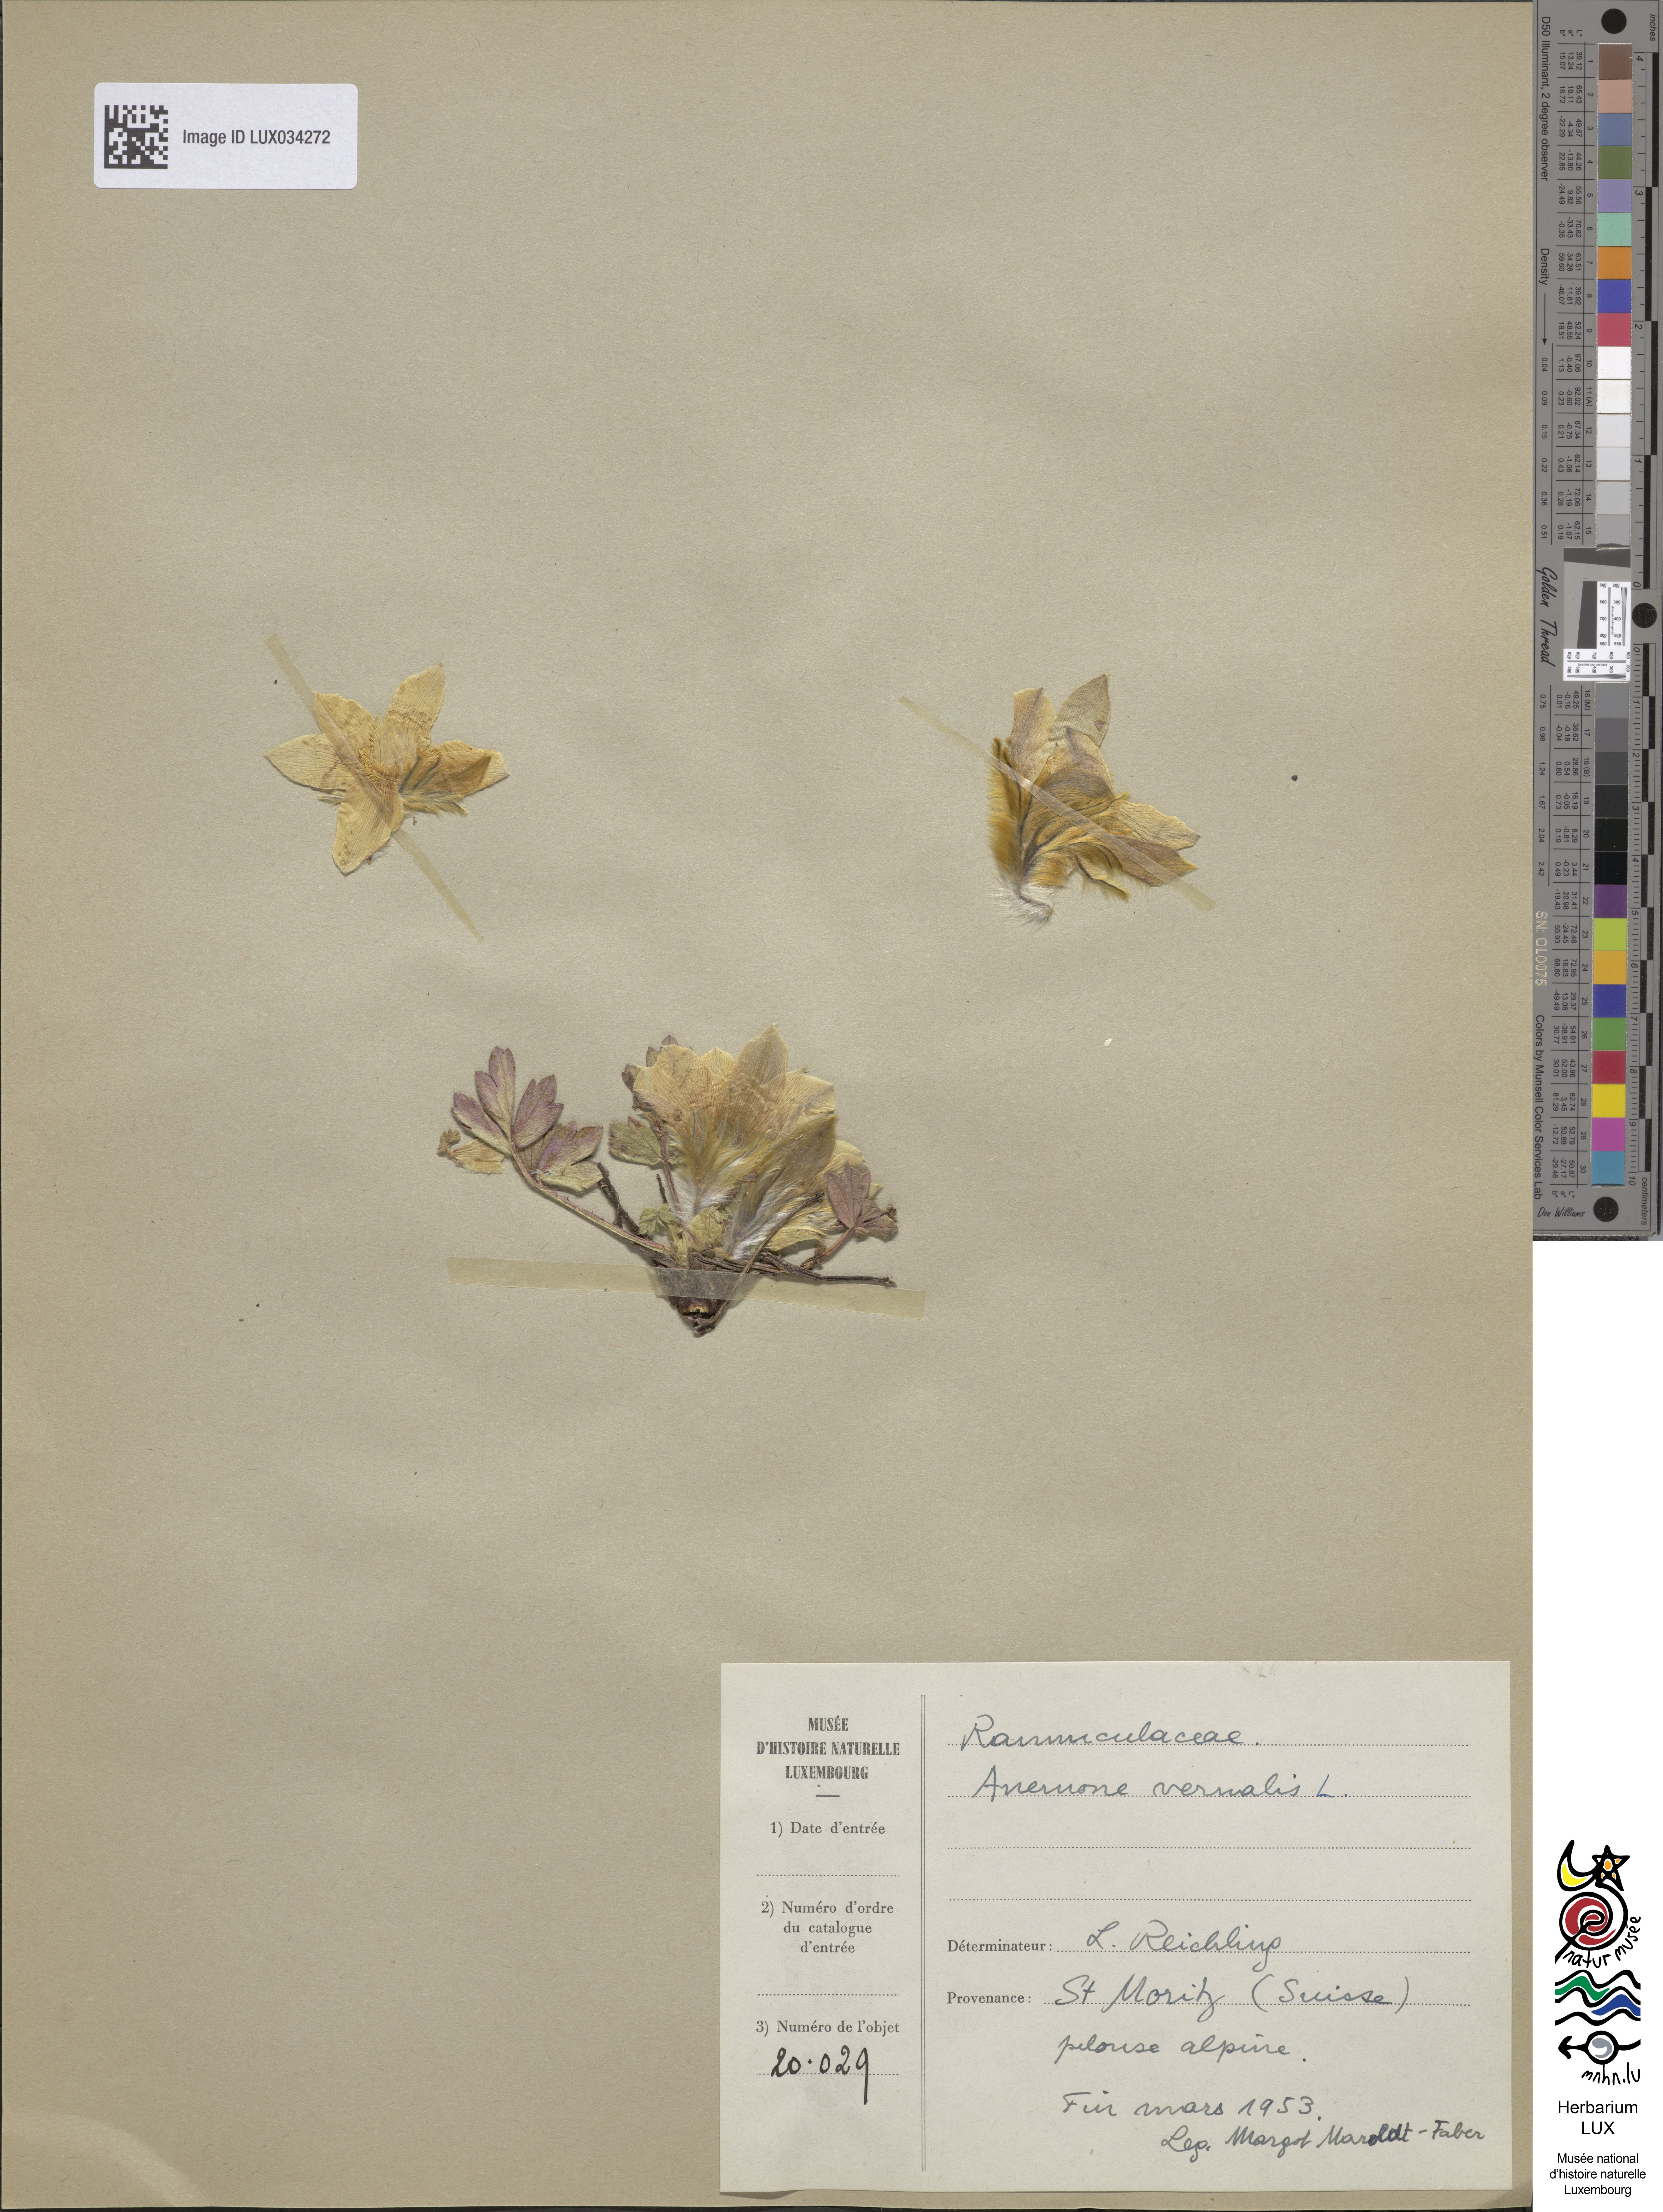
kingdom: Plantae
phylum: Tracheophyta
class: Magnoliopsida
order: Ranunculales
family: Ranunculaceae
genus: Pulsatilla
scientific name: Pulsatilla vernalis
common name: Spring pasque flower
